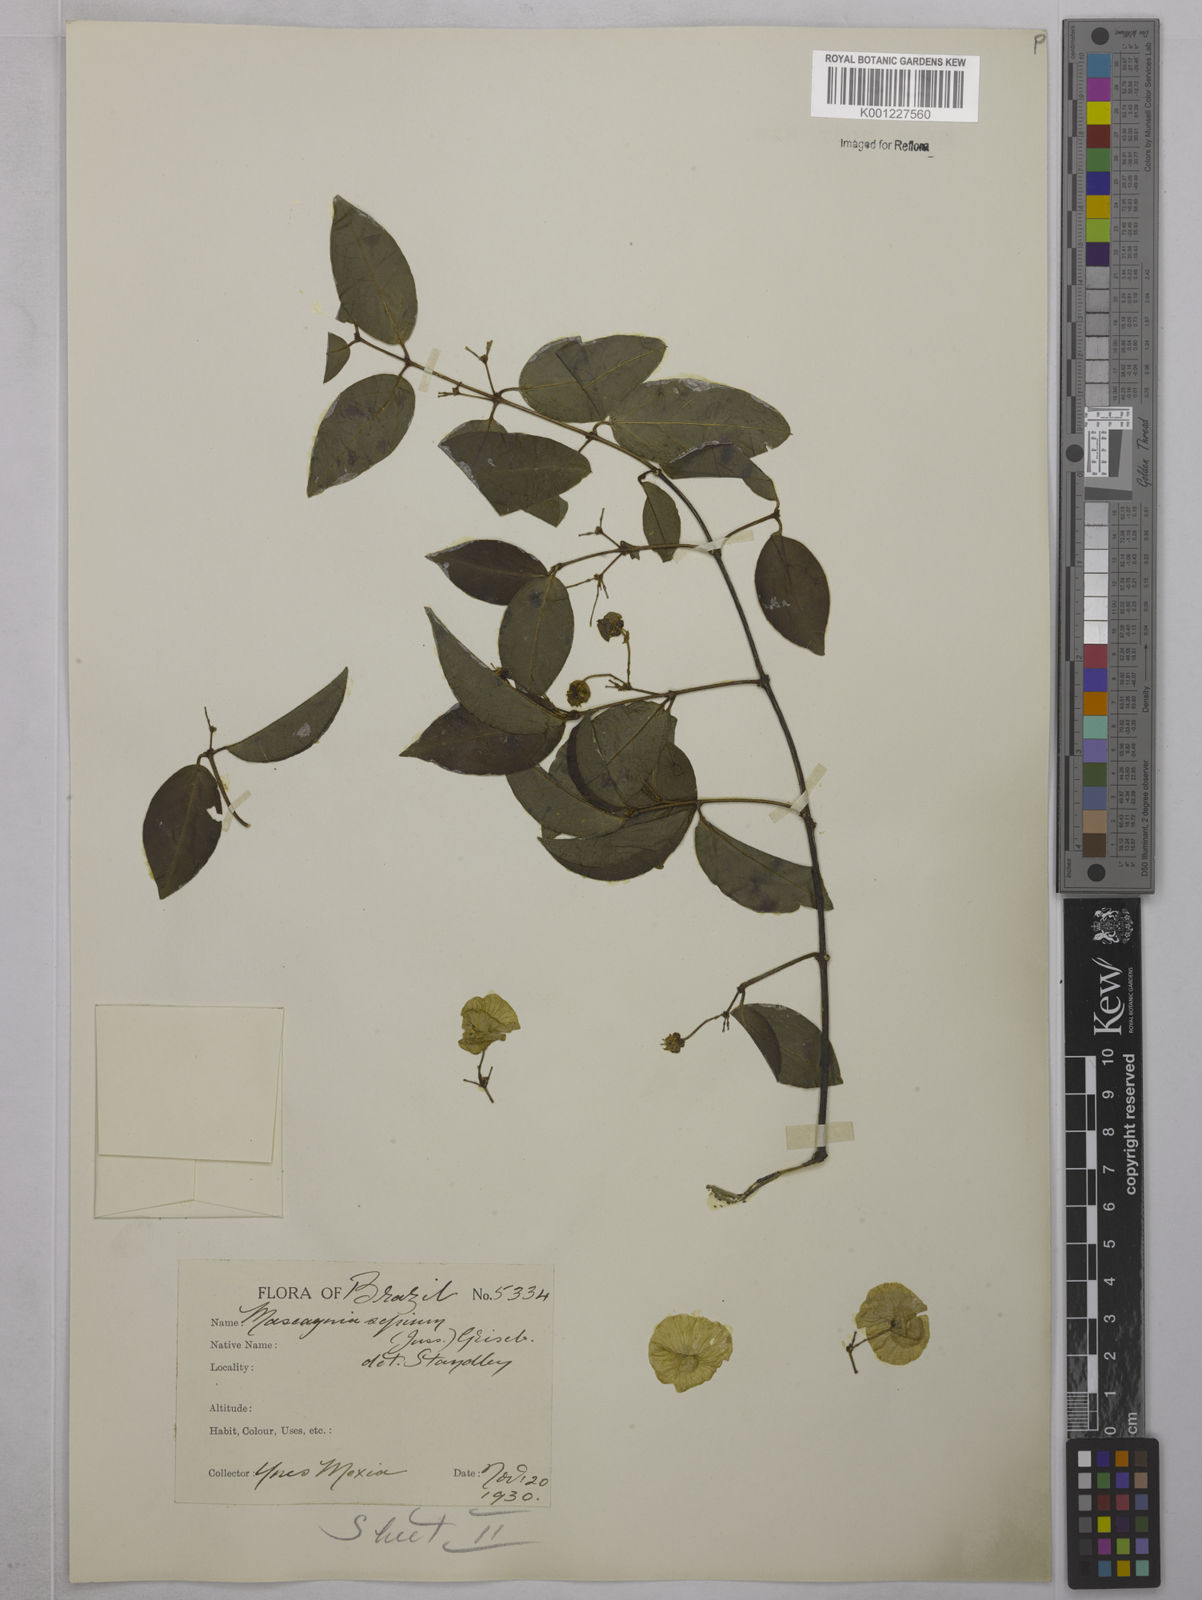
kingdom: Plantae
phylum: Tracheophyta
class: Magnoliopsida
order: Malpighiales
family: Malpighiaceae
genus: Mascagnia
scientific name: Mascagnia sepium
